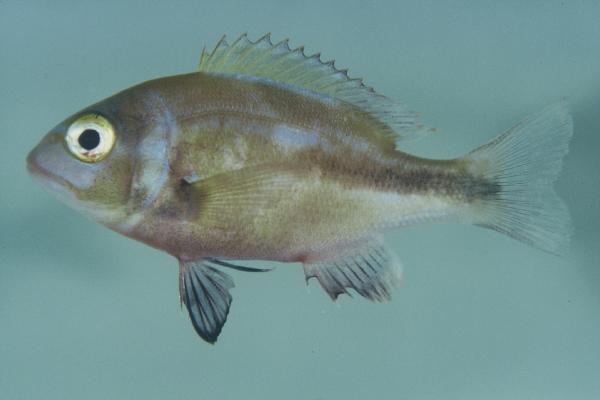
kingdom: Animalia
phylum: Chordata
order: Perciformes
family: Sparidae
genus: Chrysoblephus
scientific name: Chrysoblephus laticeps
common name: Roman seabream
